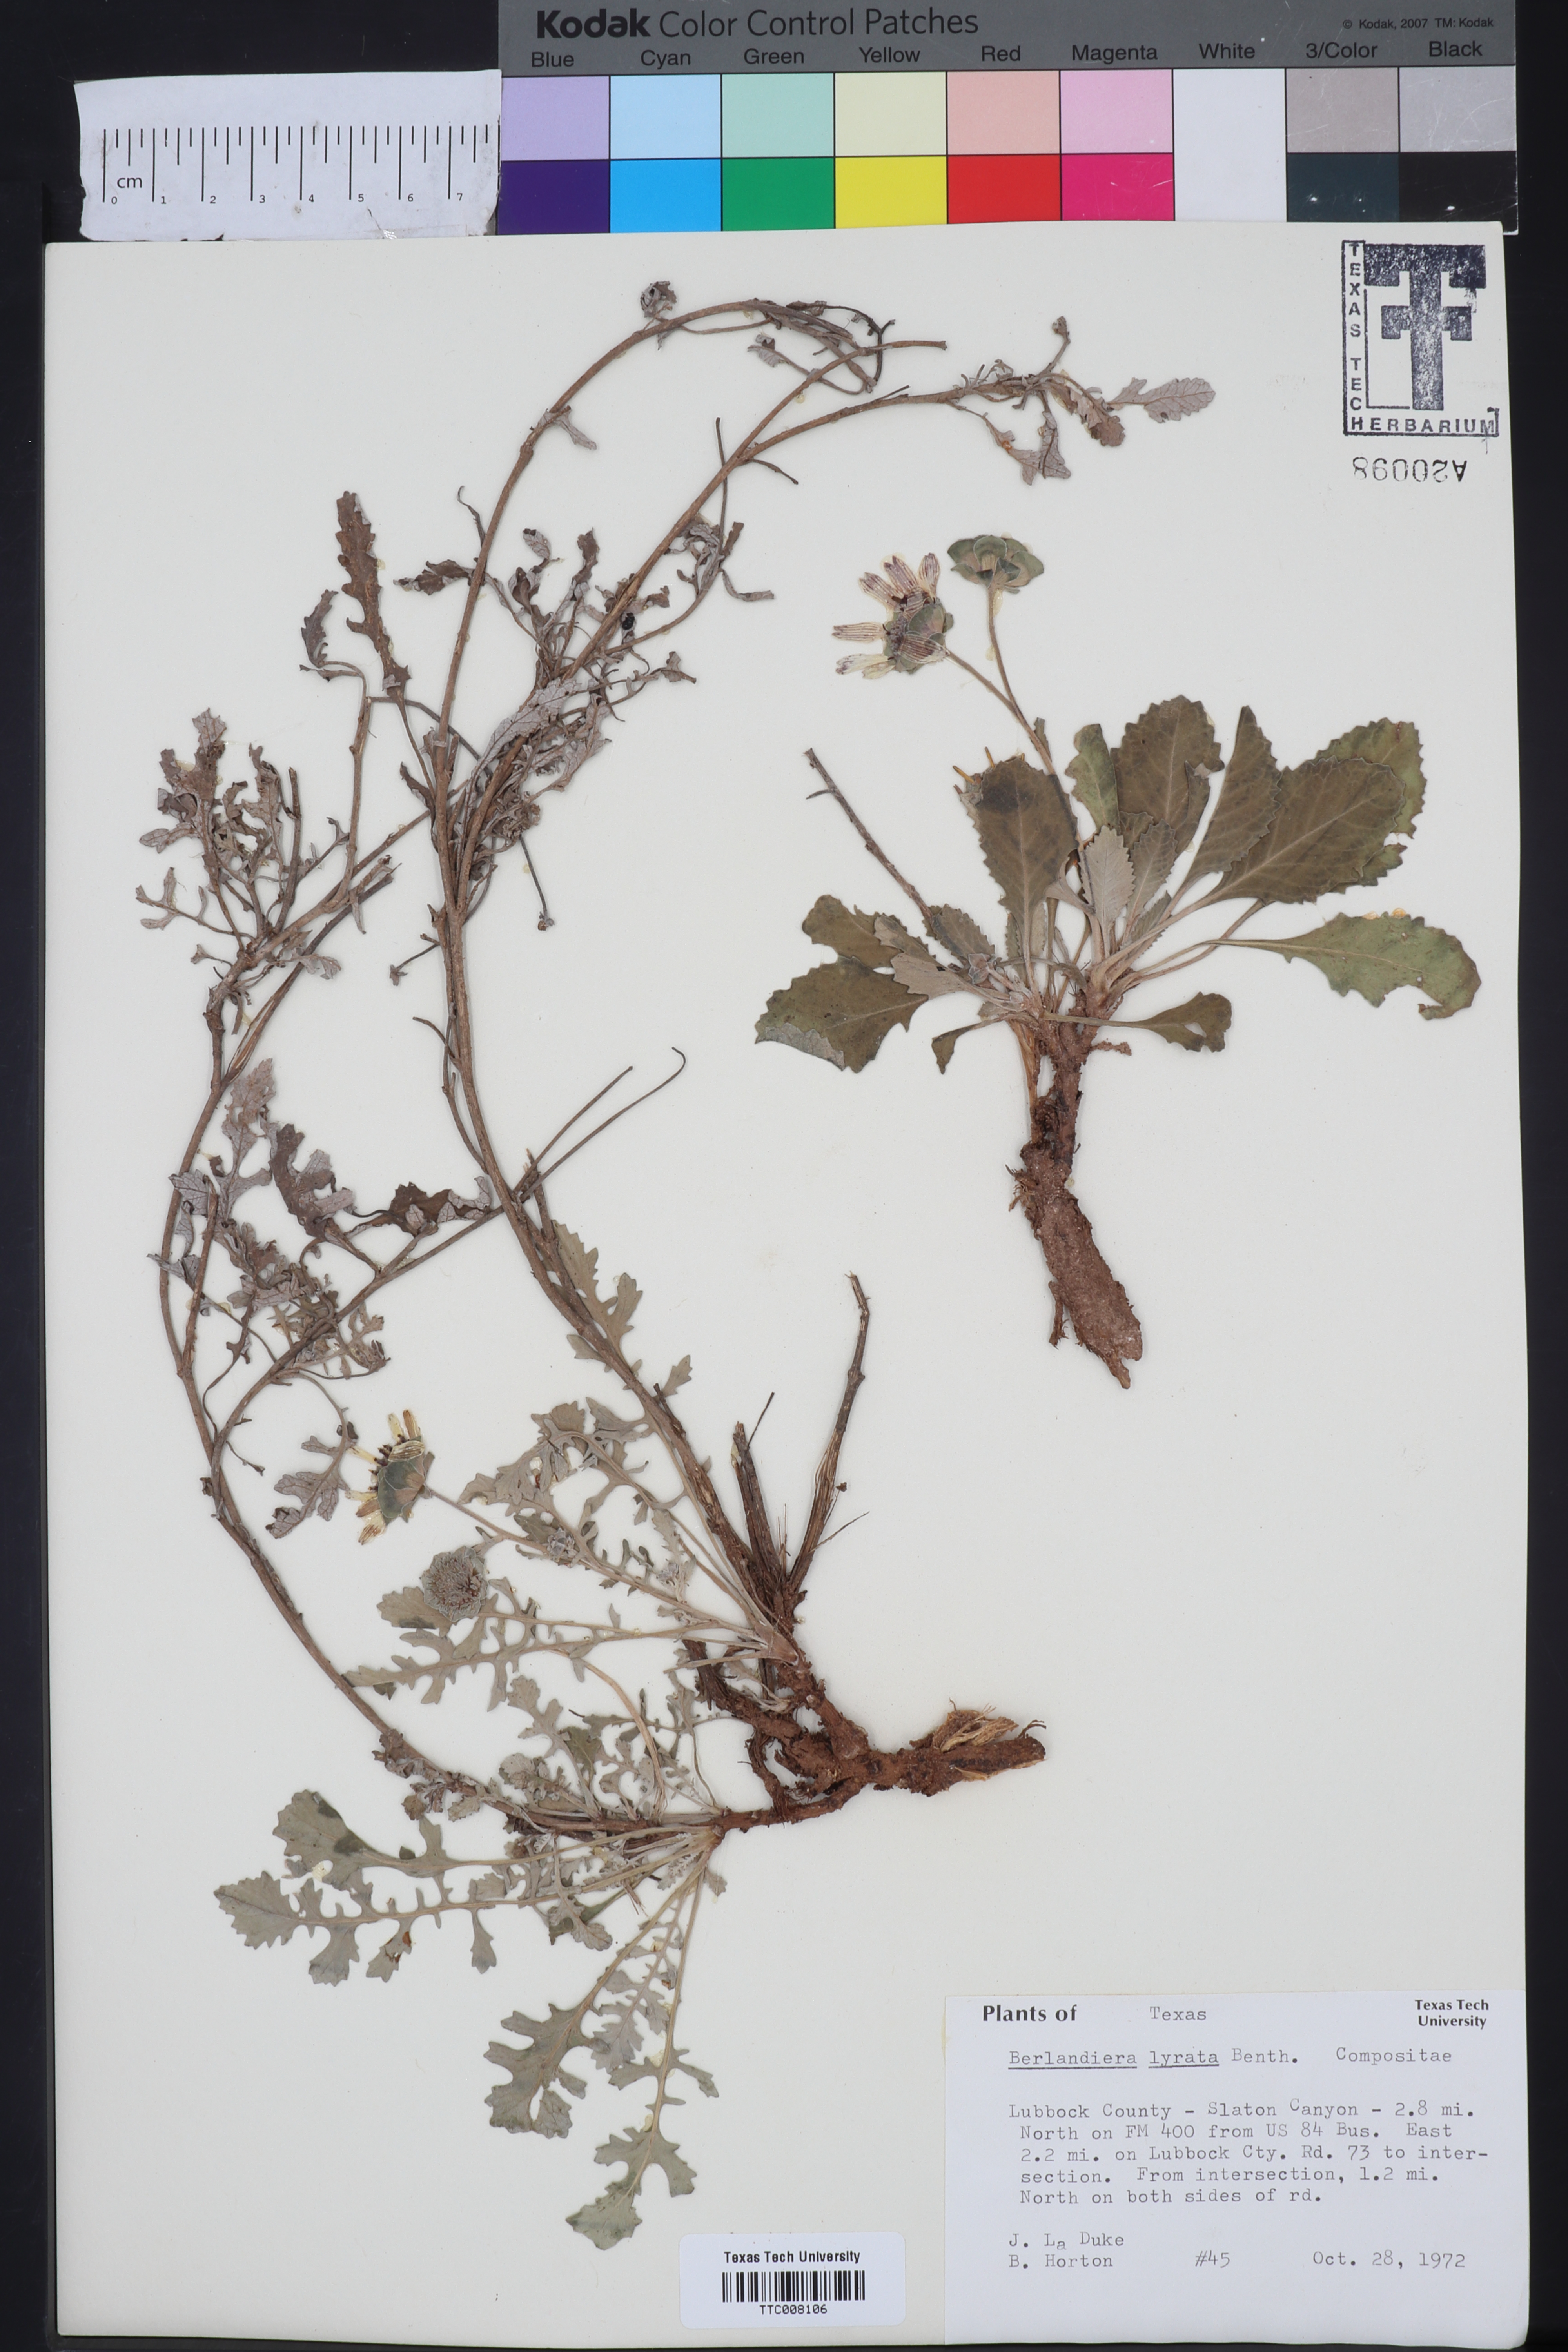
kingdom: Plantae
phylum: Tracheophyta
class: Magnoliopsida
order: Asterales
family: Asteraceae
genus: Berlandiera
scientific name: Berlandiera lyrata
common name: Chocolate-flower
